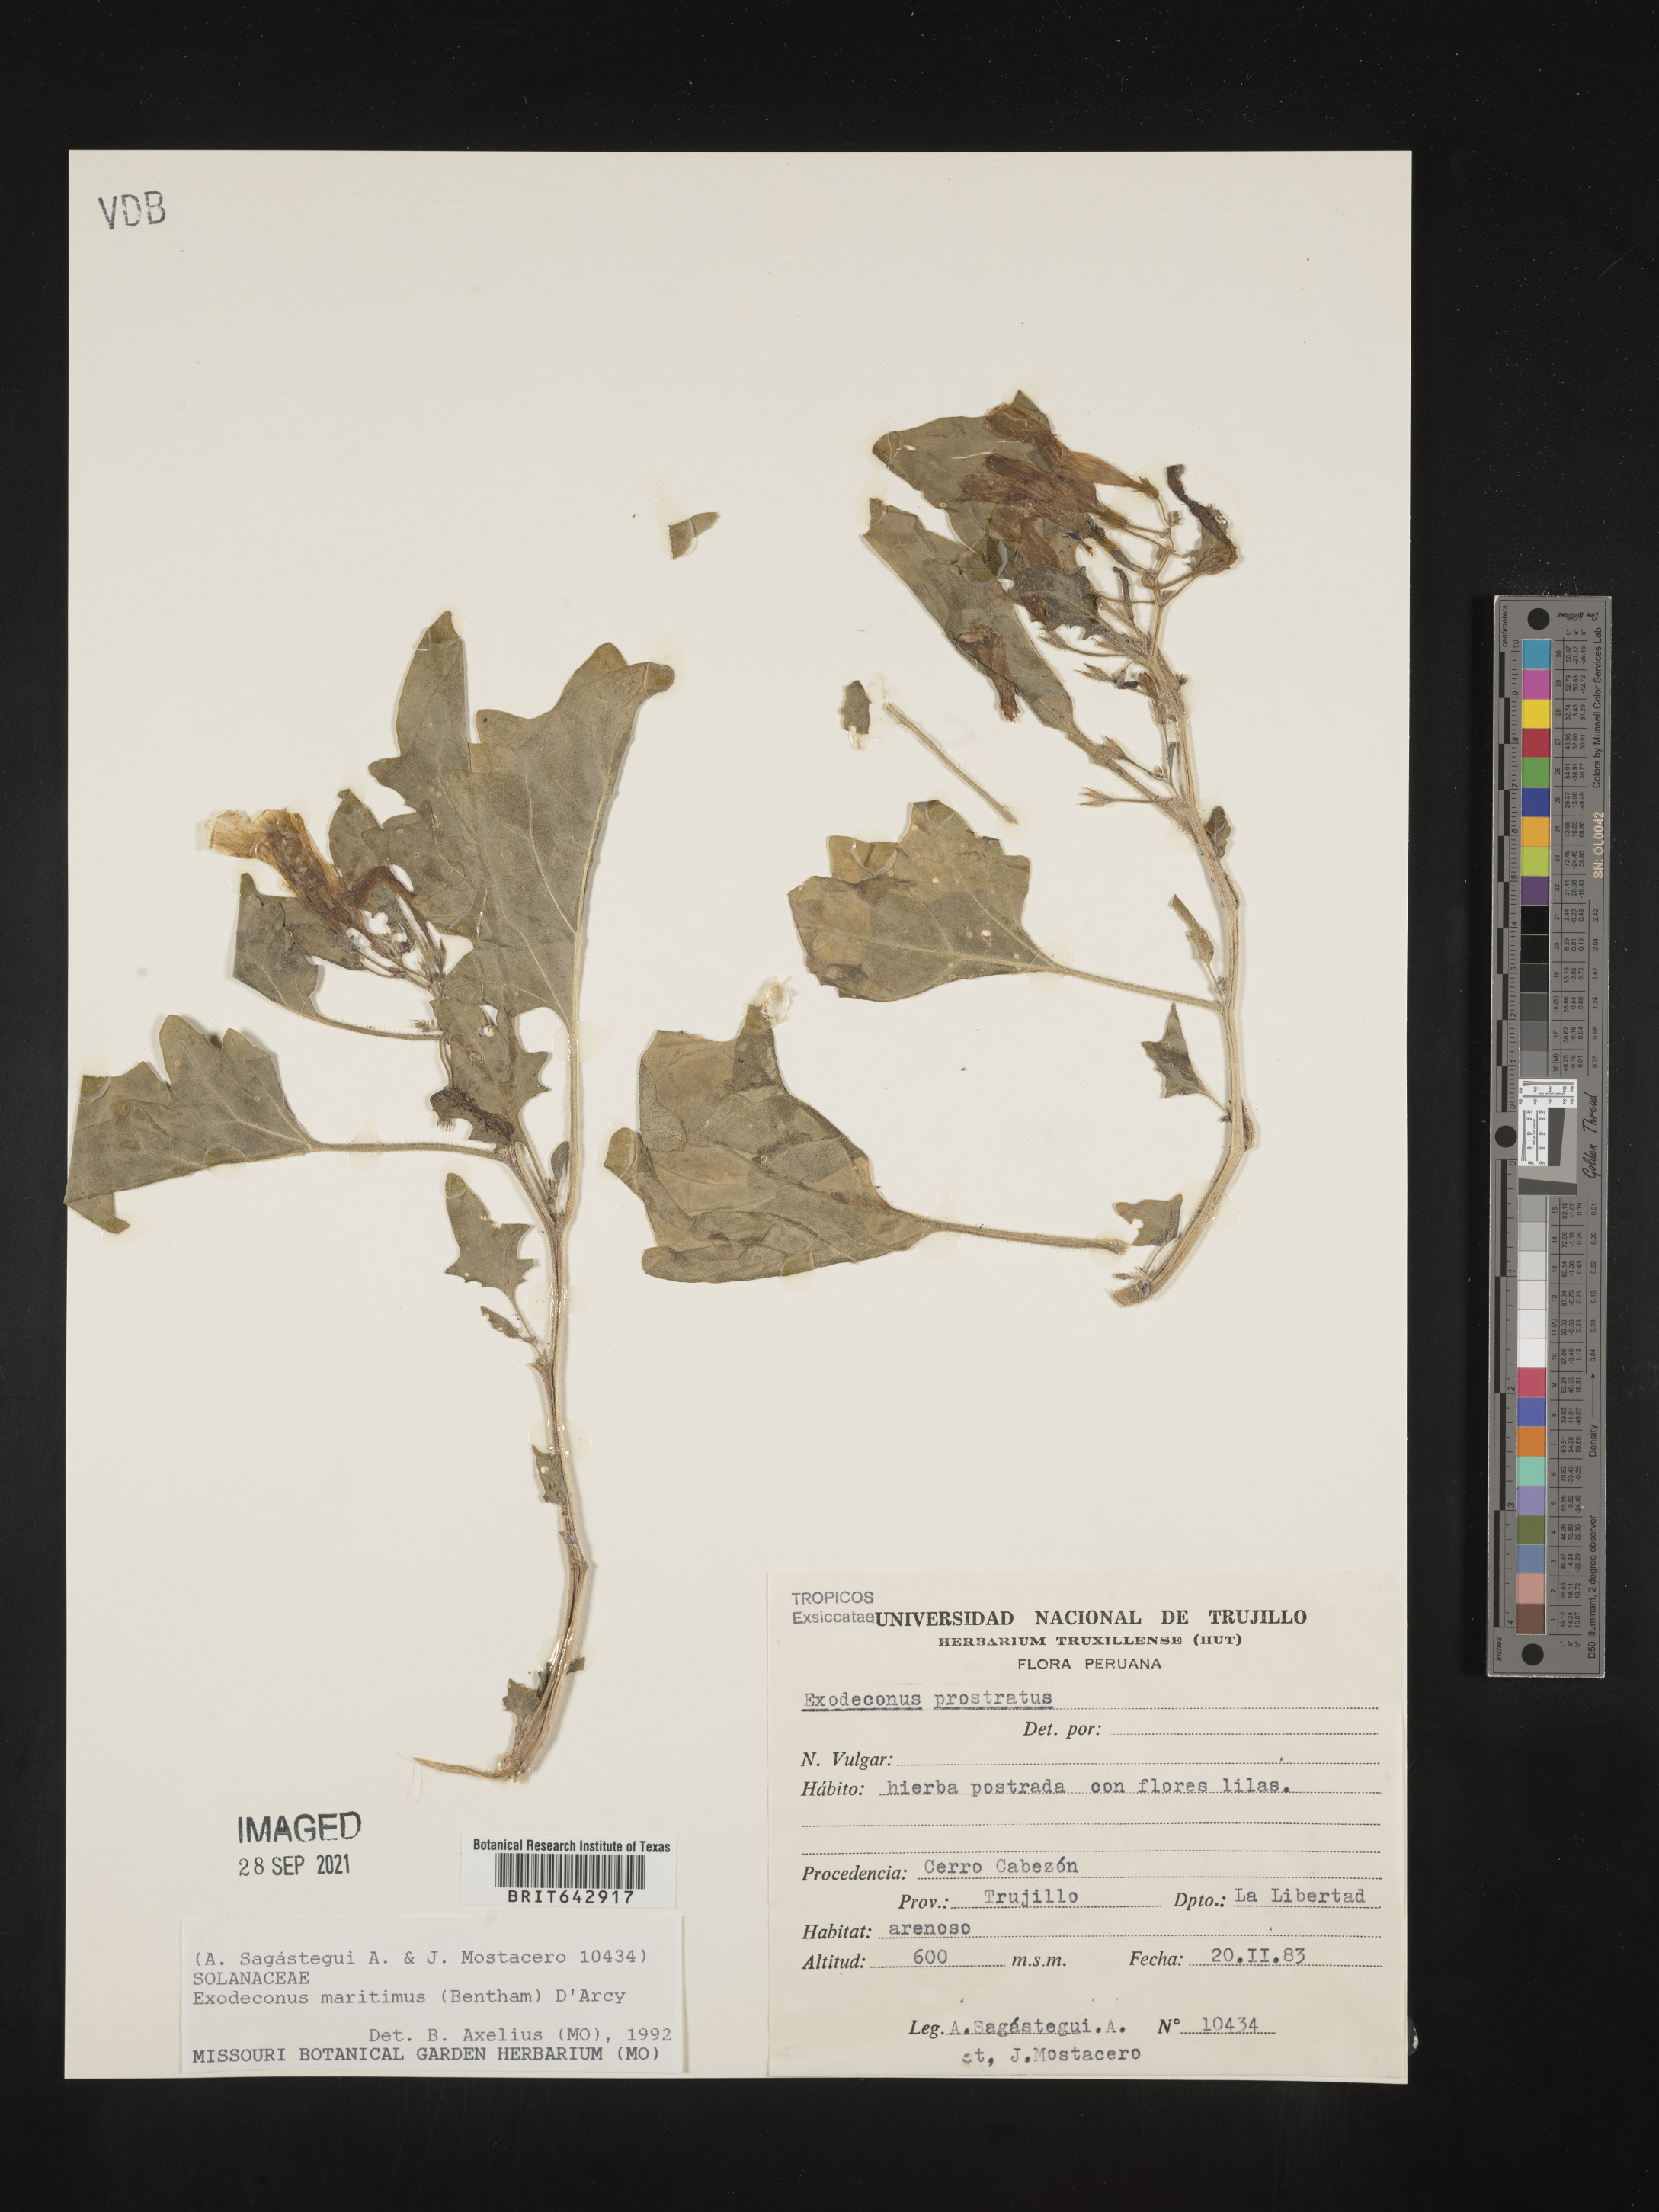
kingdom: Plantae
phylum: Tracheophyta
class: Magnoliopsida
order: Solanales
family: Solanaceae
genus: Exodeconus
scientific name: Exodeconus
